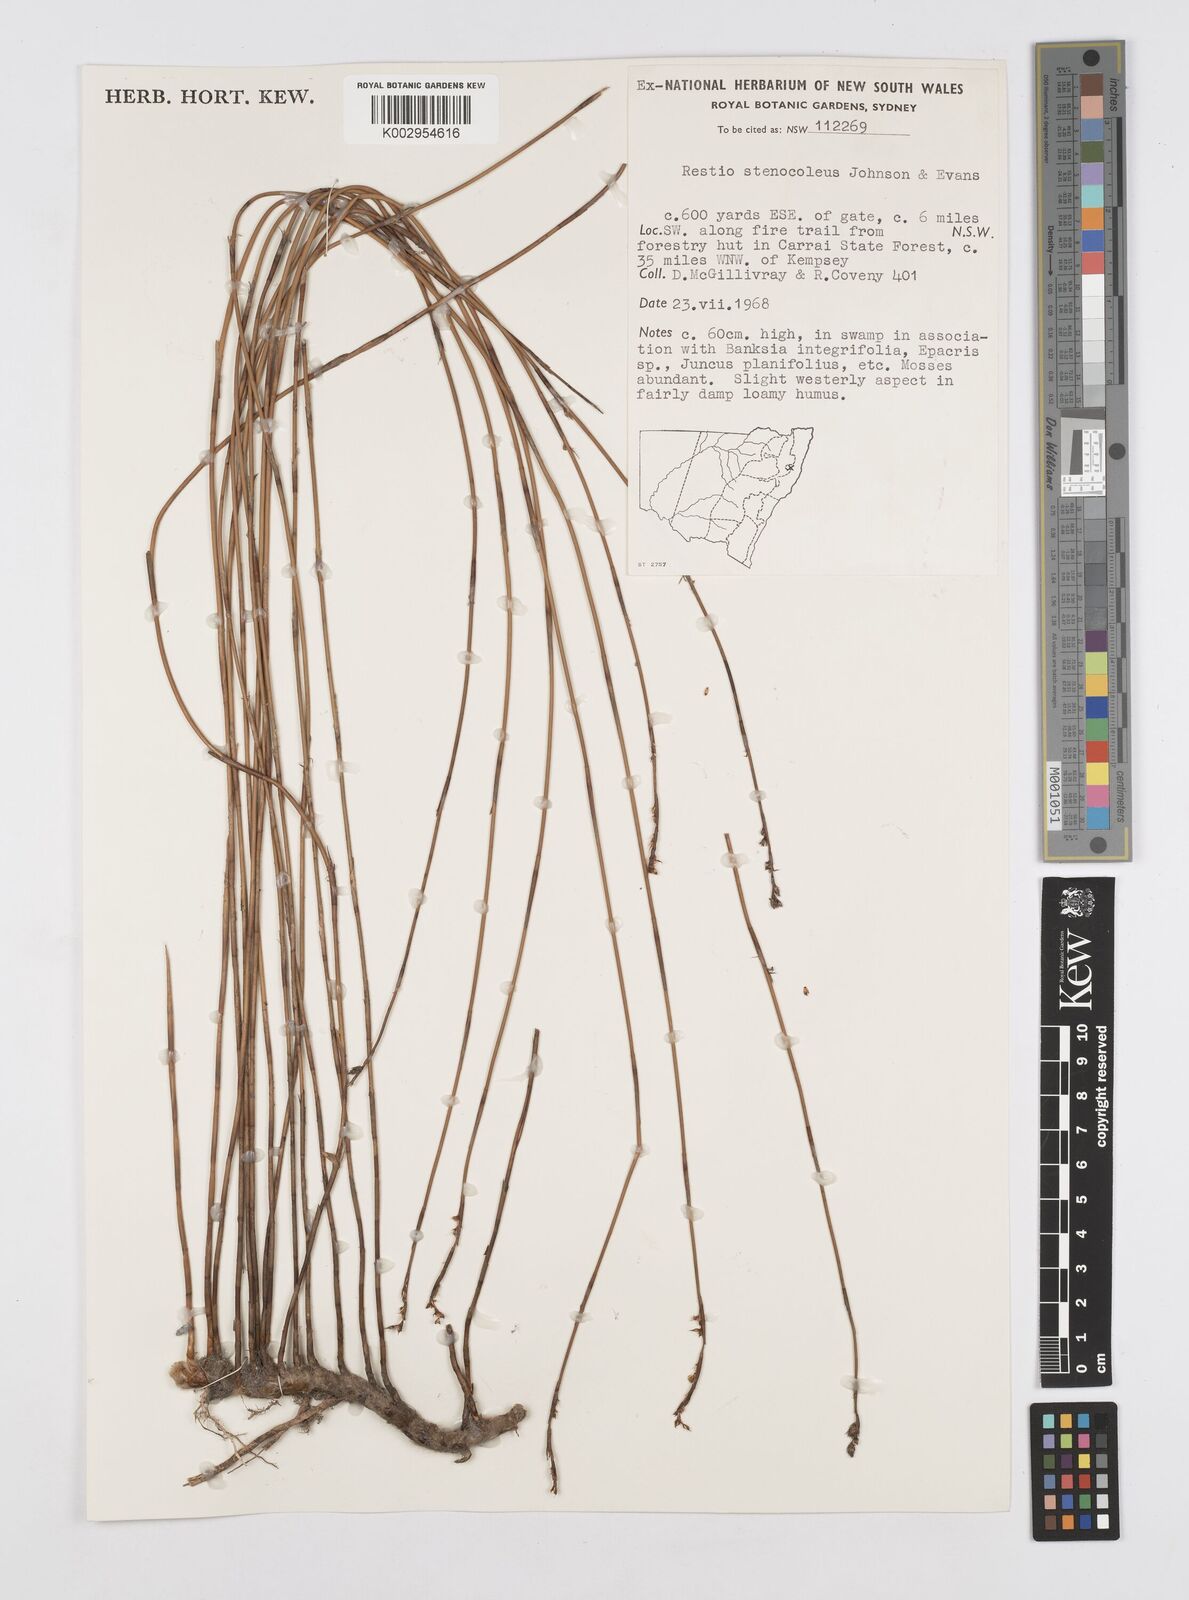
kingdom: Plantae
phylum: Tracheophyta
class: Liliopsida
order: Poales
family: Restionaceae
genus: Baloskion
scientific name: Baloskion stenocoleum
